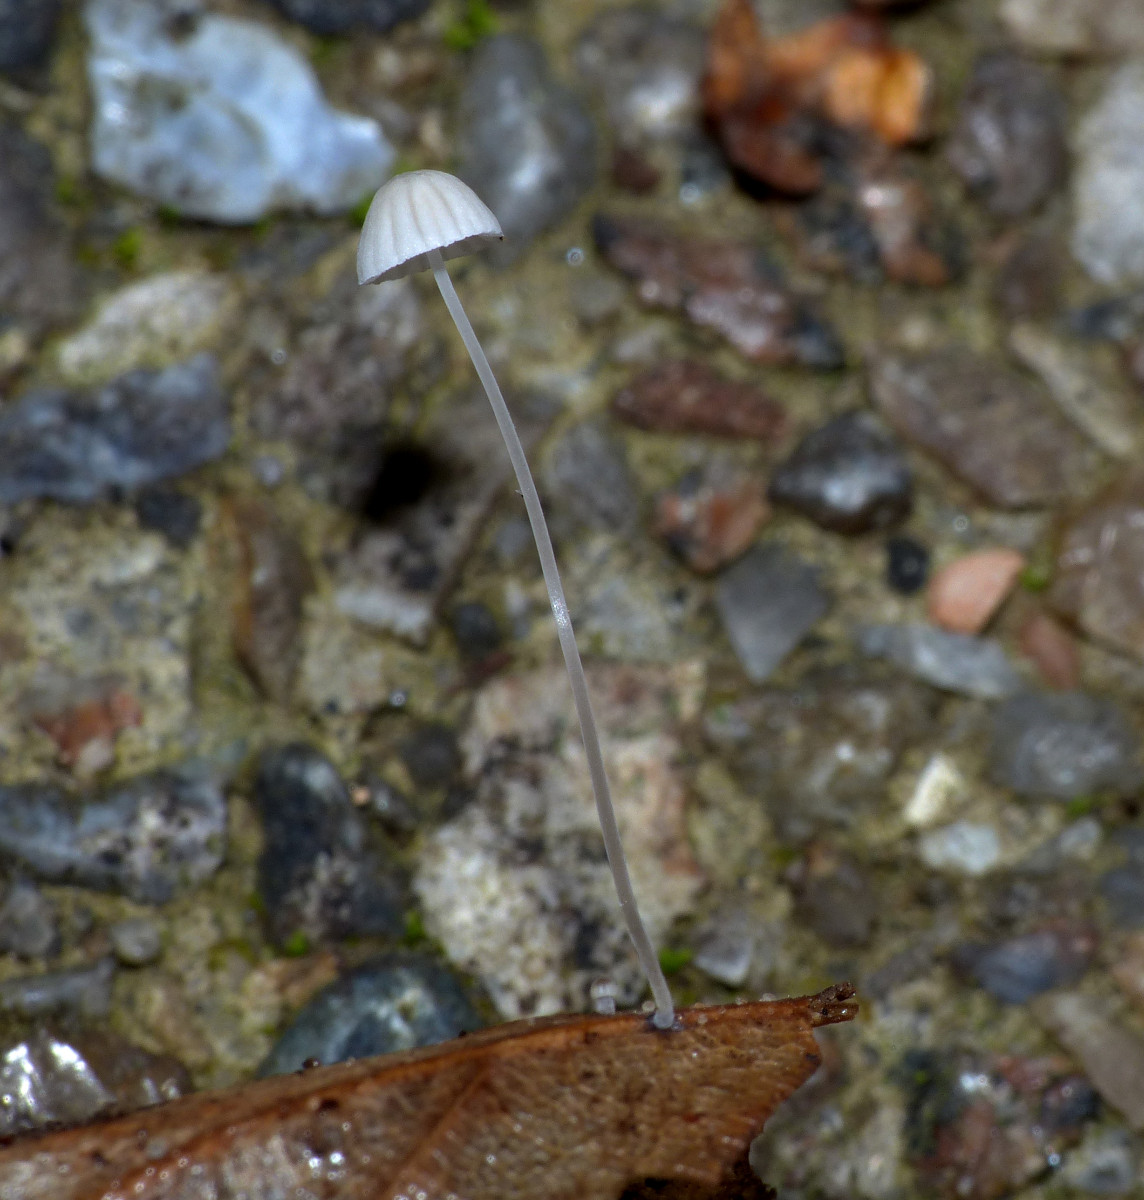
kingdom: Fungi
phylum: Basidiomycota
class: Agaricomycetes
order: Agaricales
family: Mycenaceae
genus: Mycena
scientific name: Mycena vitilis
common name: blankstokket huesvamp
